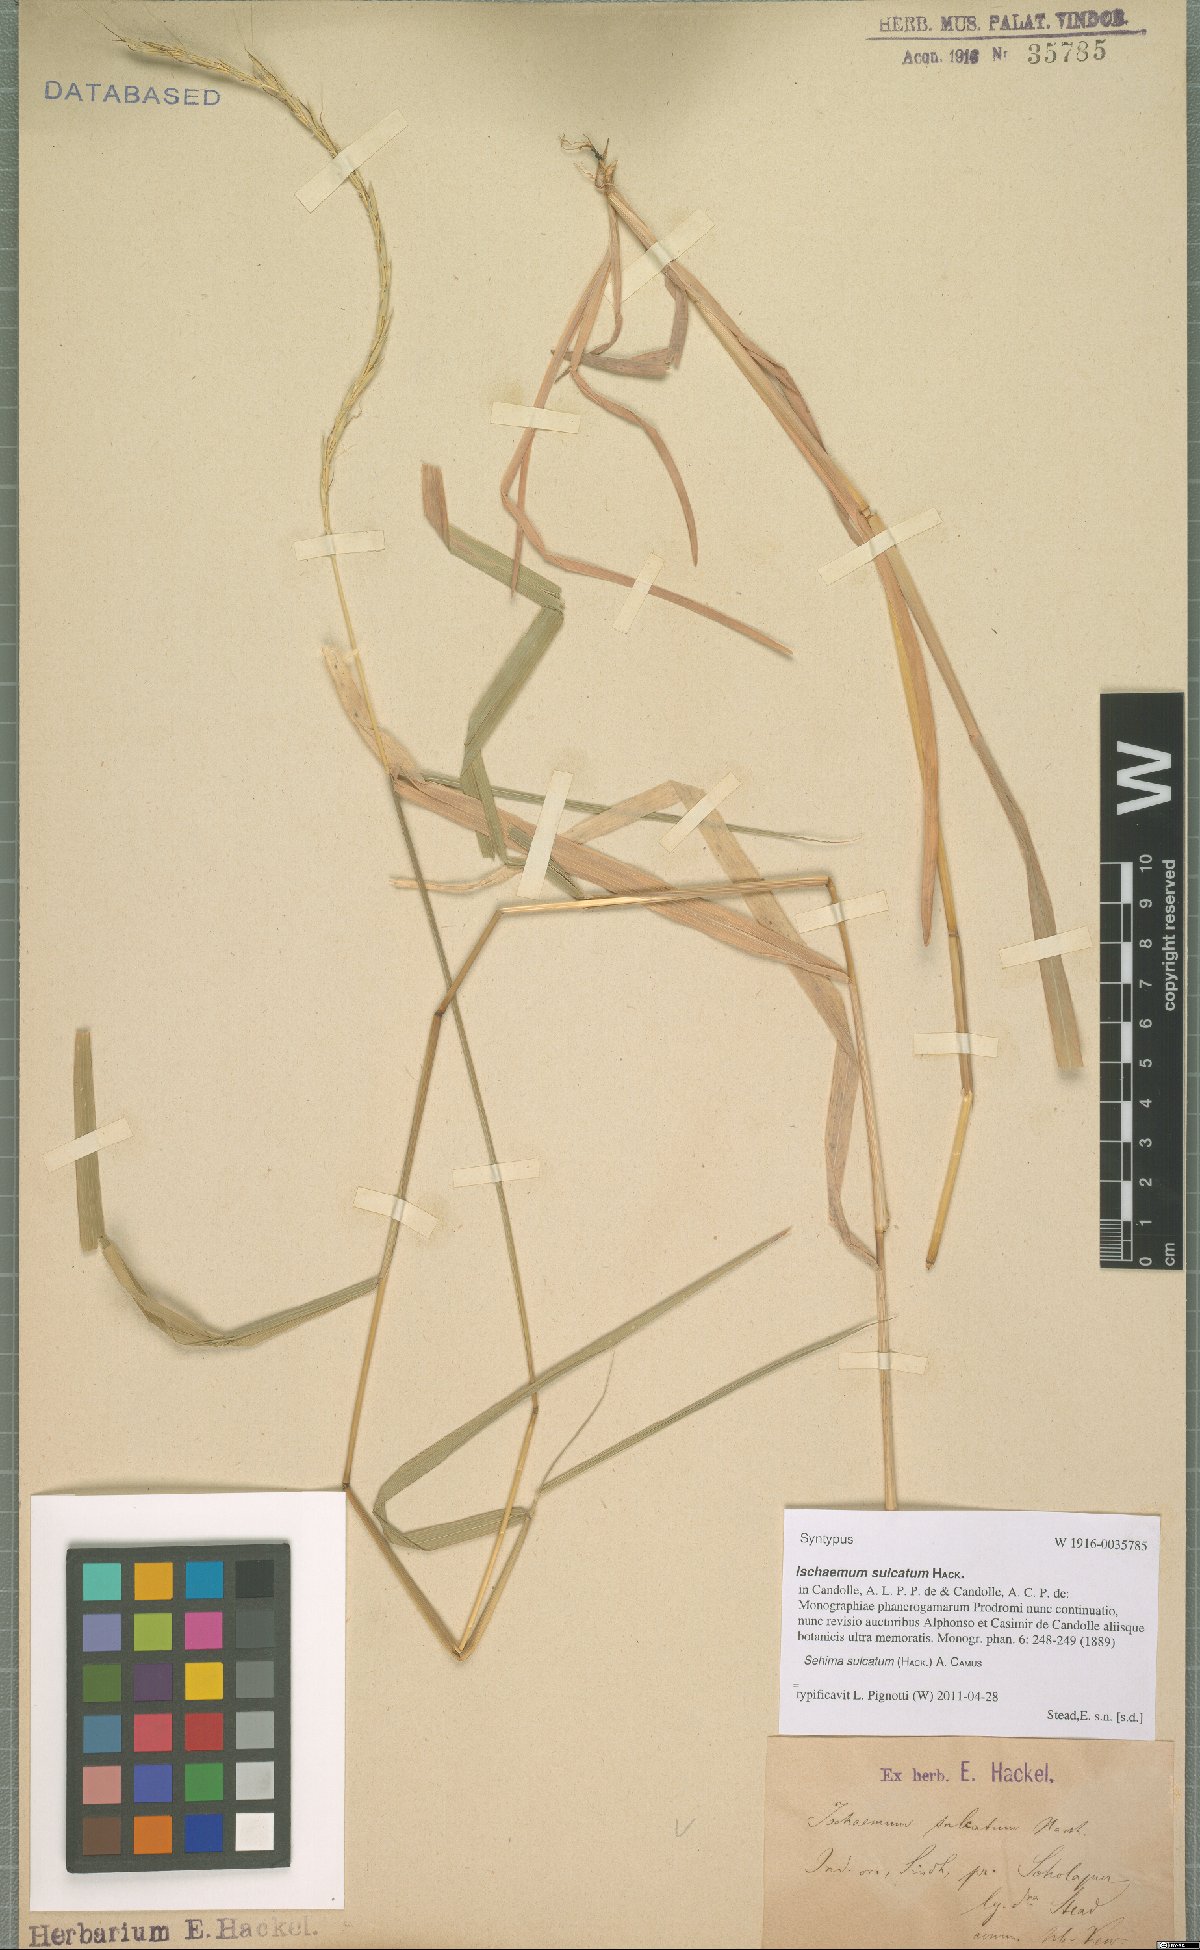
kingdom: Plantae
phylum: Tracheophyta
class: Liliopsida
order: Poales
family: Poaceae
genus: Sehima
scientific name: Sehima sulcata
